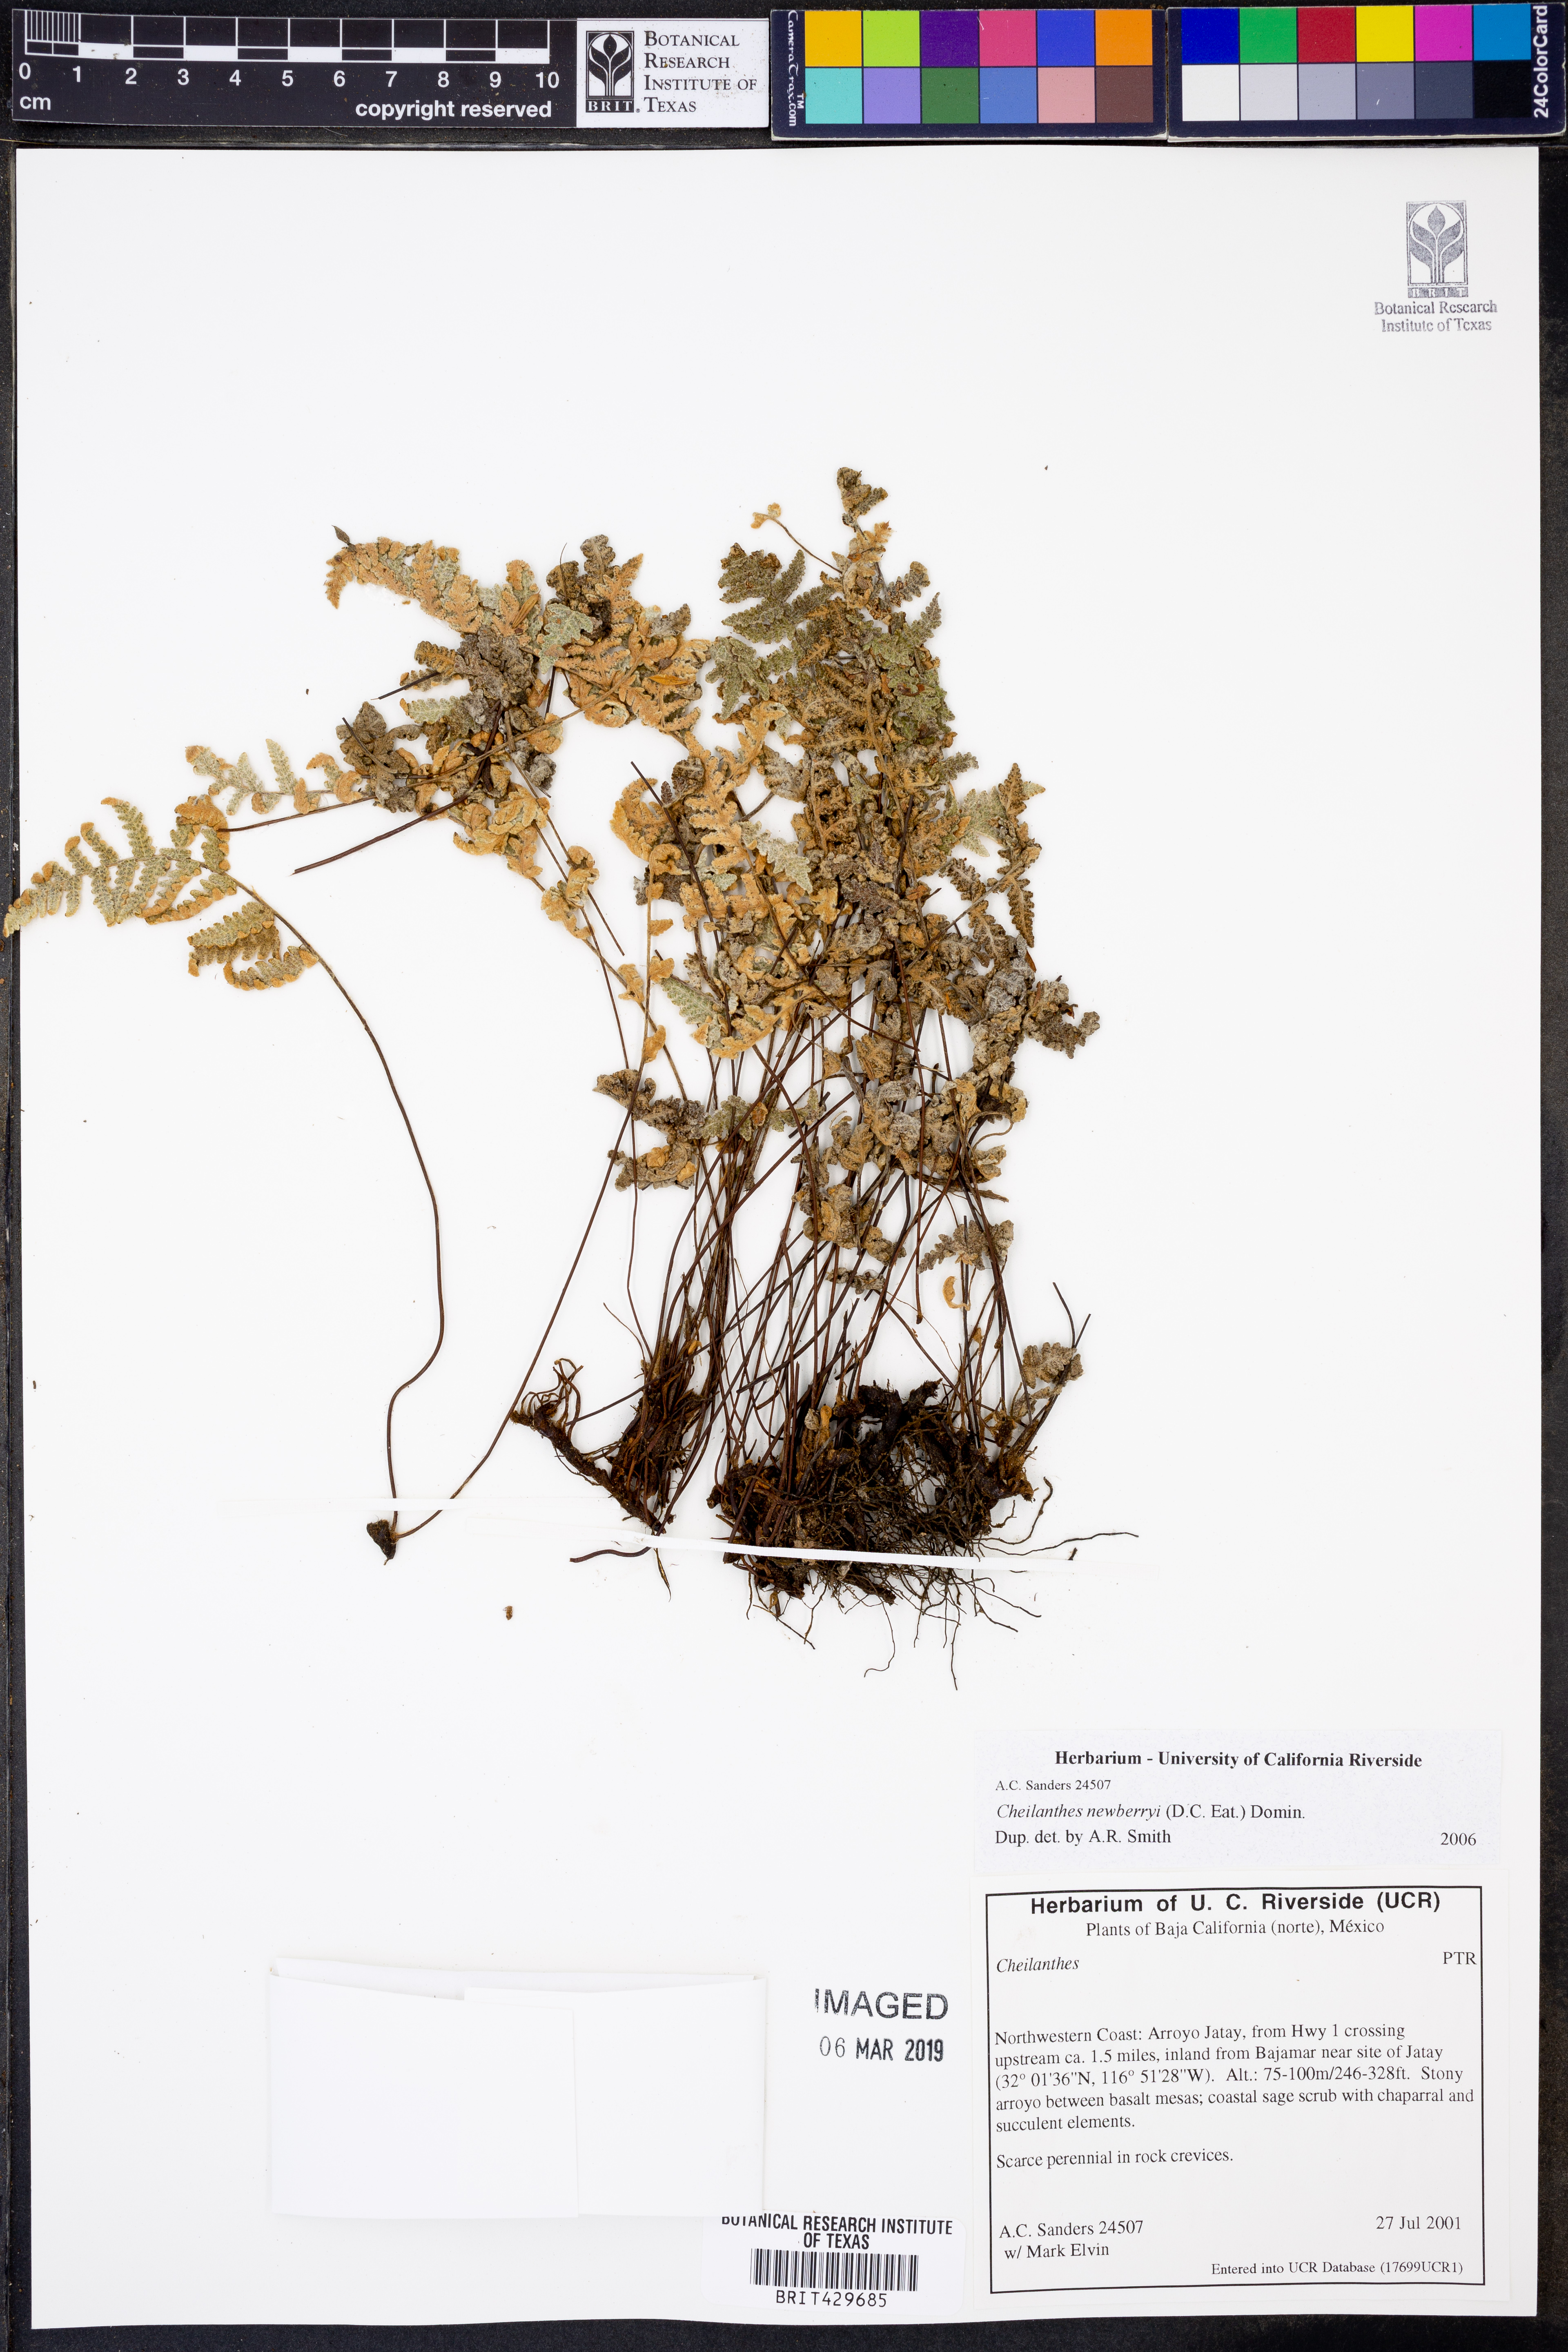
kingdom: Plantae
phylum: Tracheophyta
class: Polypodiopsida
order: Polypodiales
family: Pteridaceae
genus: Myriopteris
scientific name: Myriopteris newberryi
